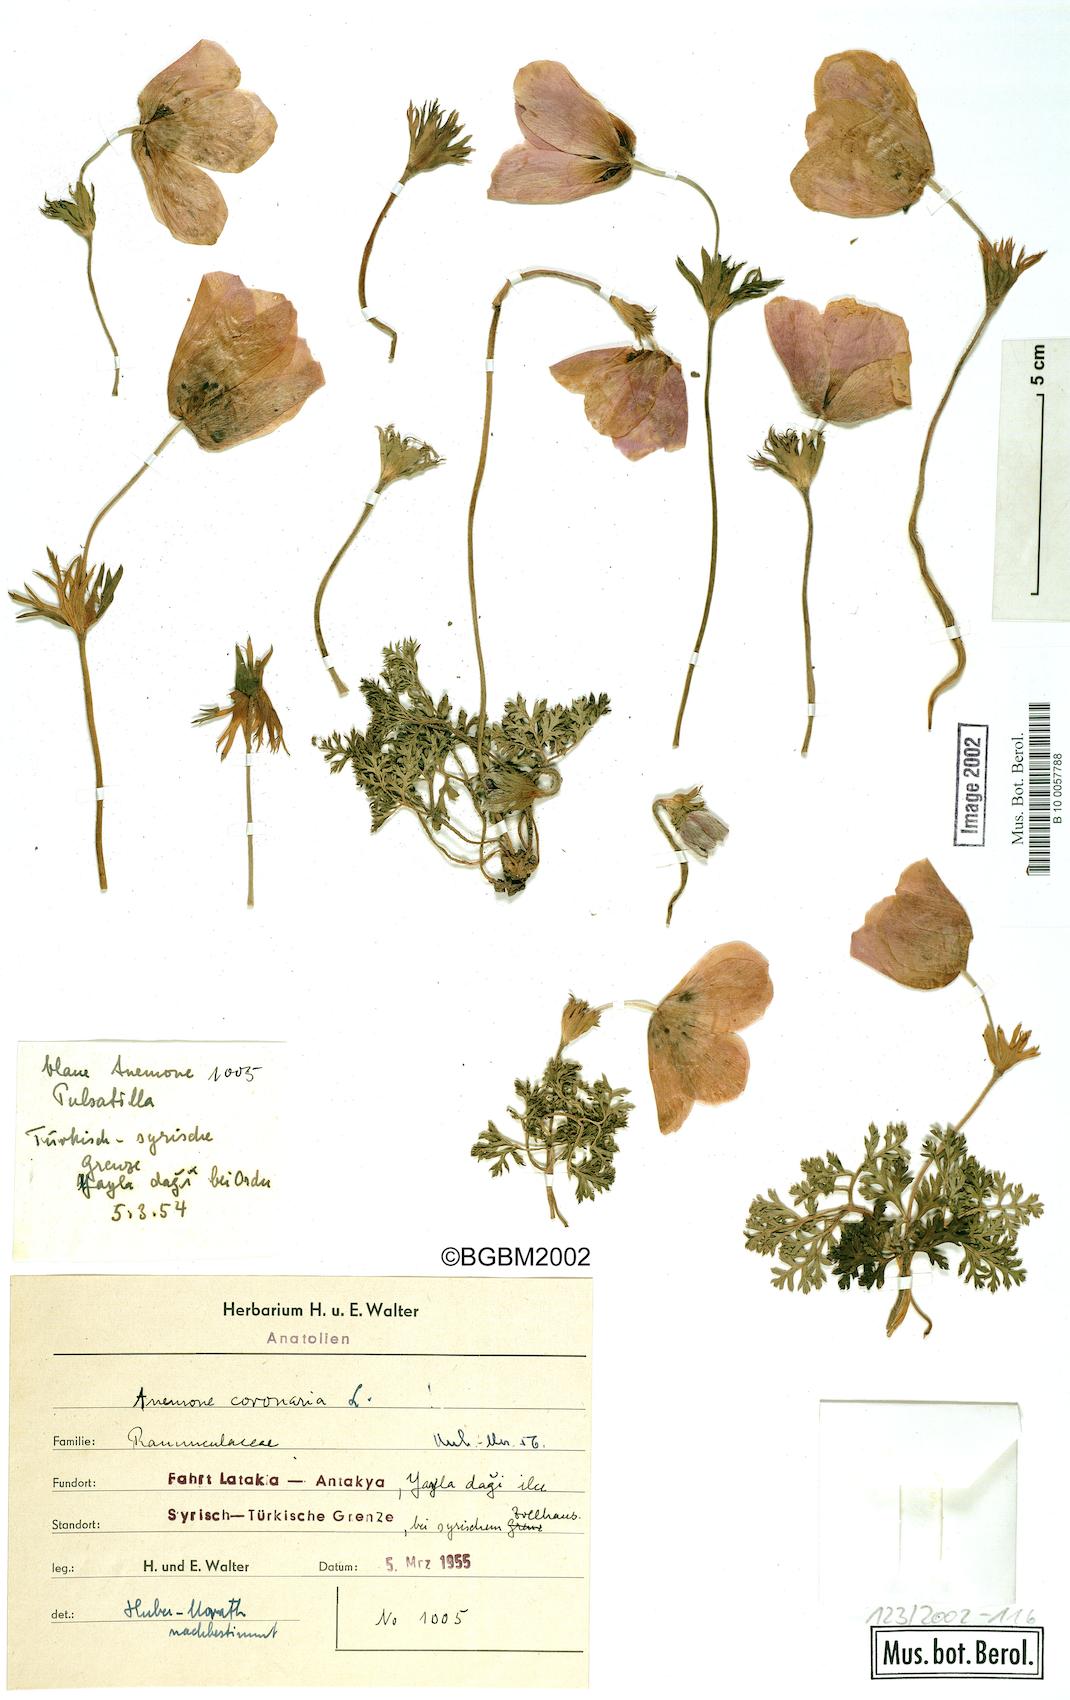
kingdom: Plantae
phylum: Tracheophyta
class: Magnoliopsida
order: Ranunculales
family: Ranunculaceae
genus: Anemone
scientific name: Anemone coronaria
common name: Poppy anemone
